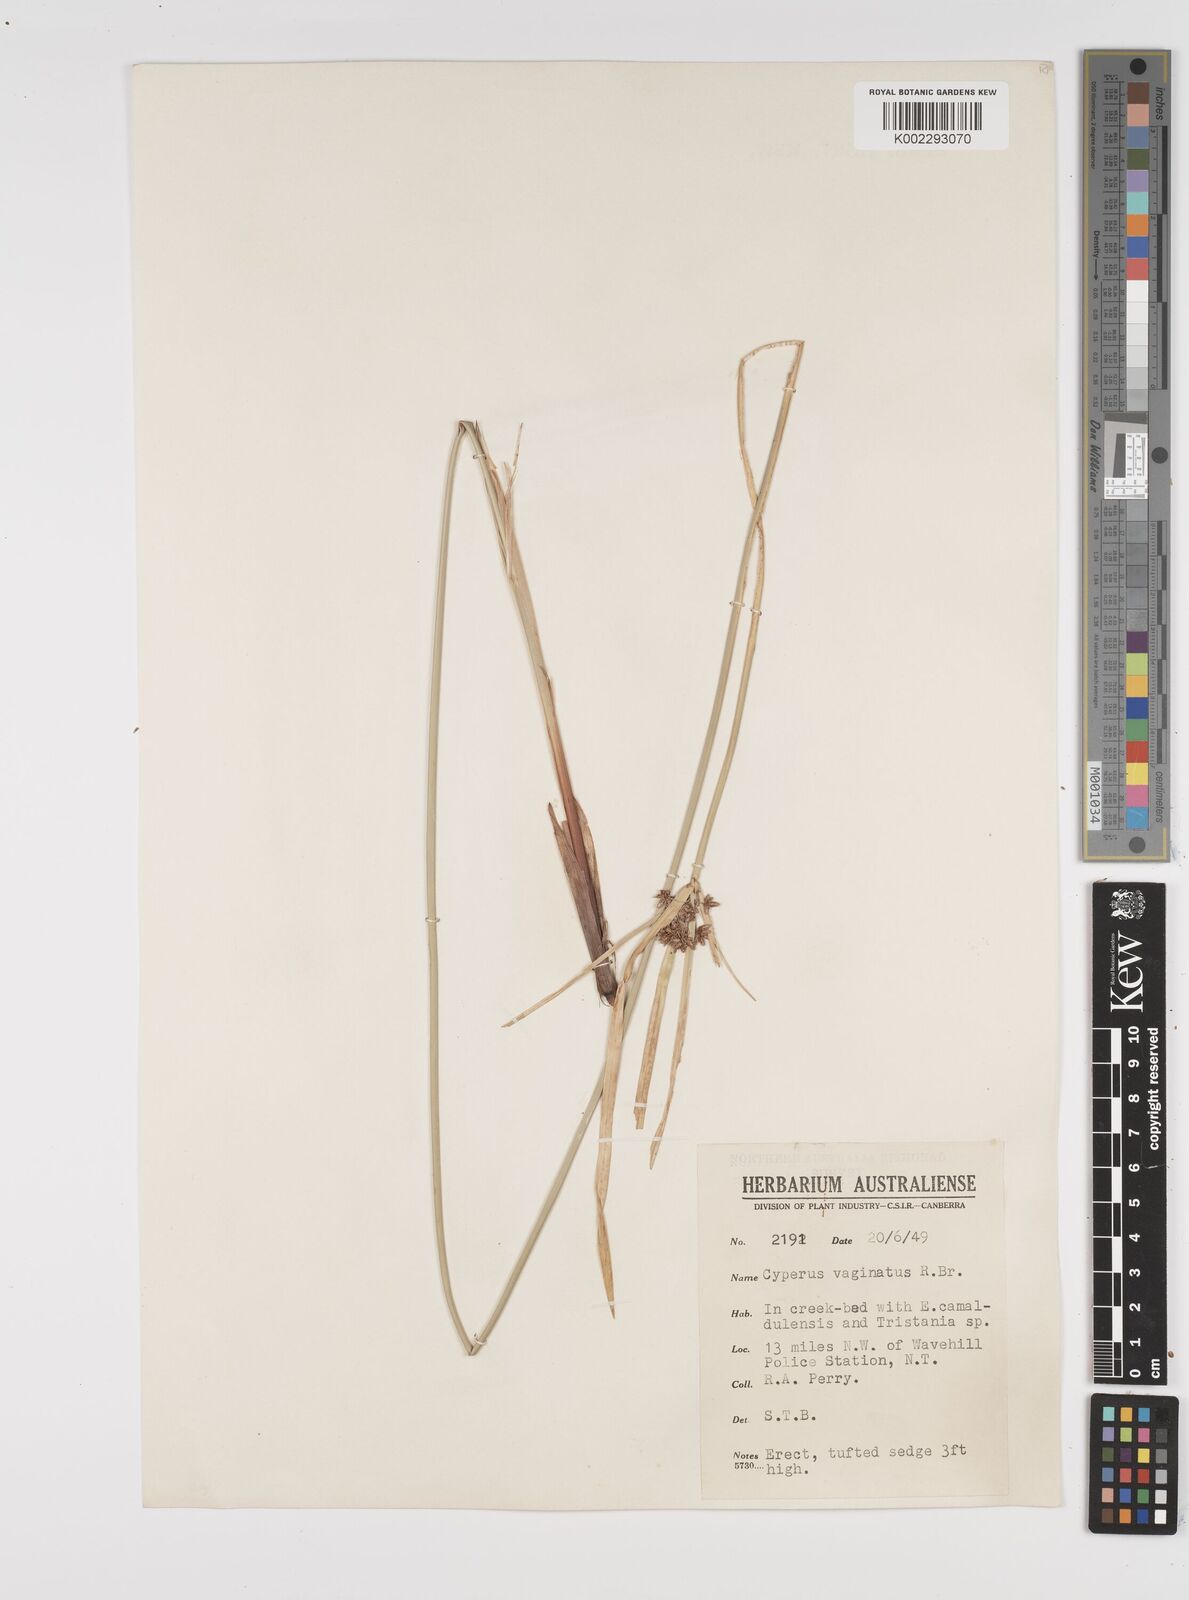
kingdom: Plantae
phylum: Tracheophyta
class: Liliopsida
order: Poales
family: Cyperaceae
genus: Cyperus
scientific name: Cyperus vaginatus
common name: Stiff-leaved flat-sedge
